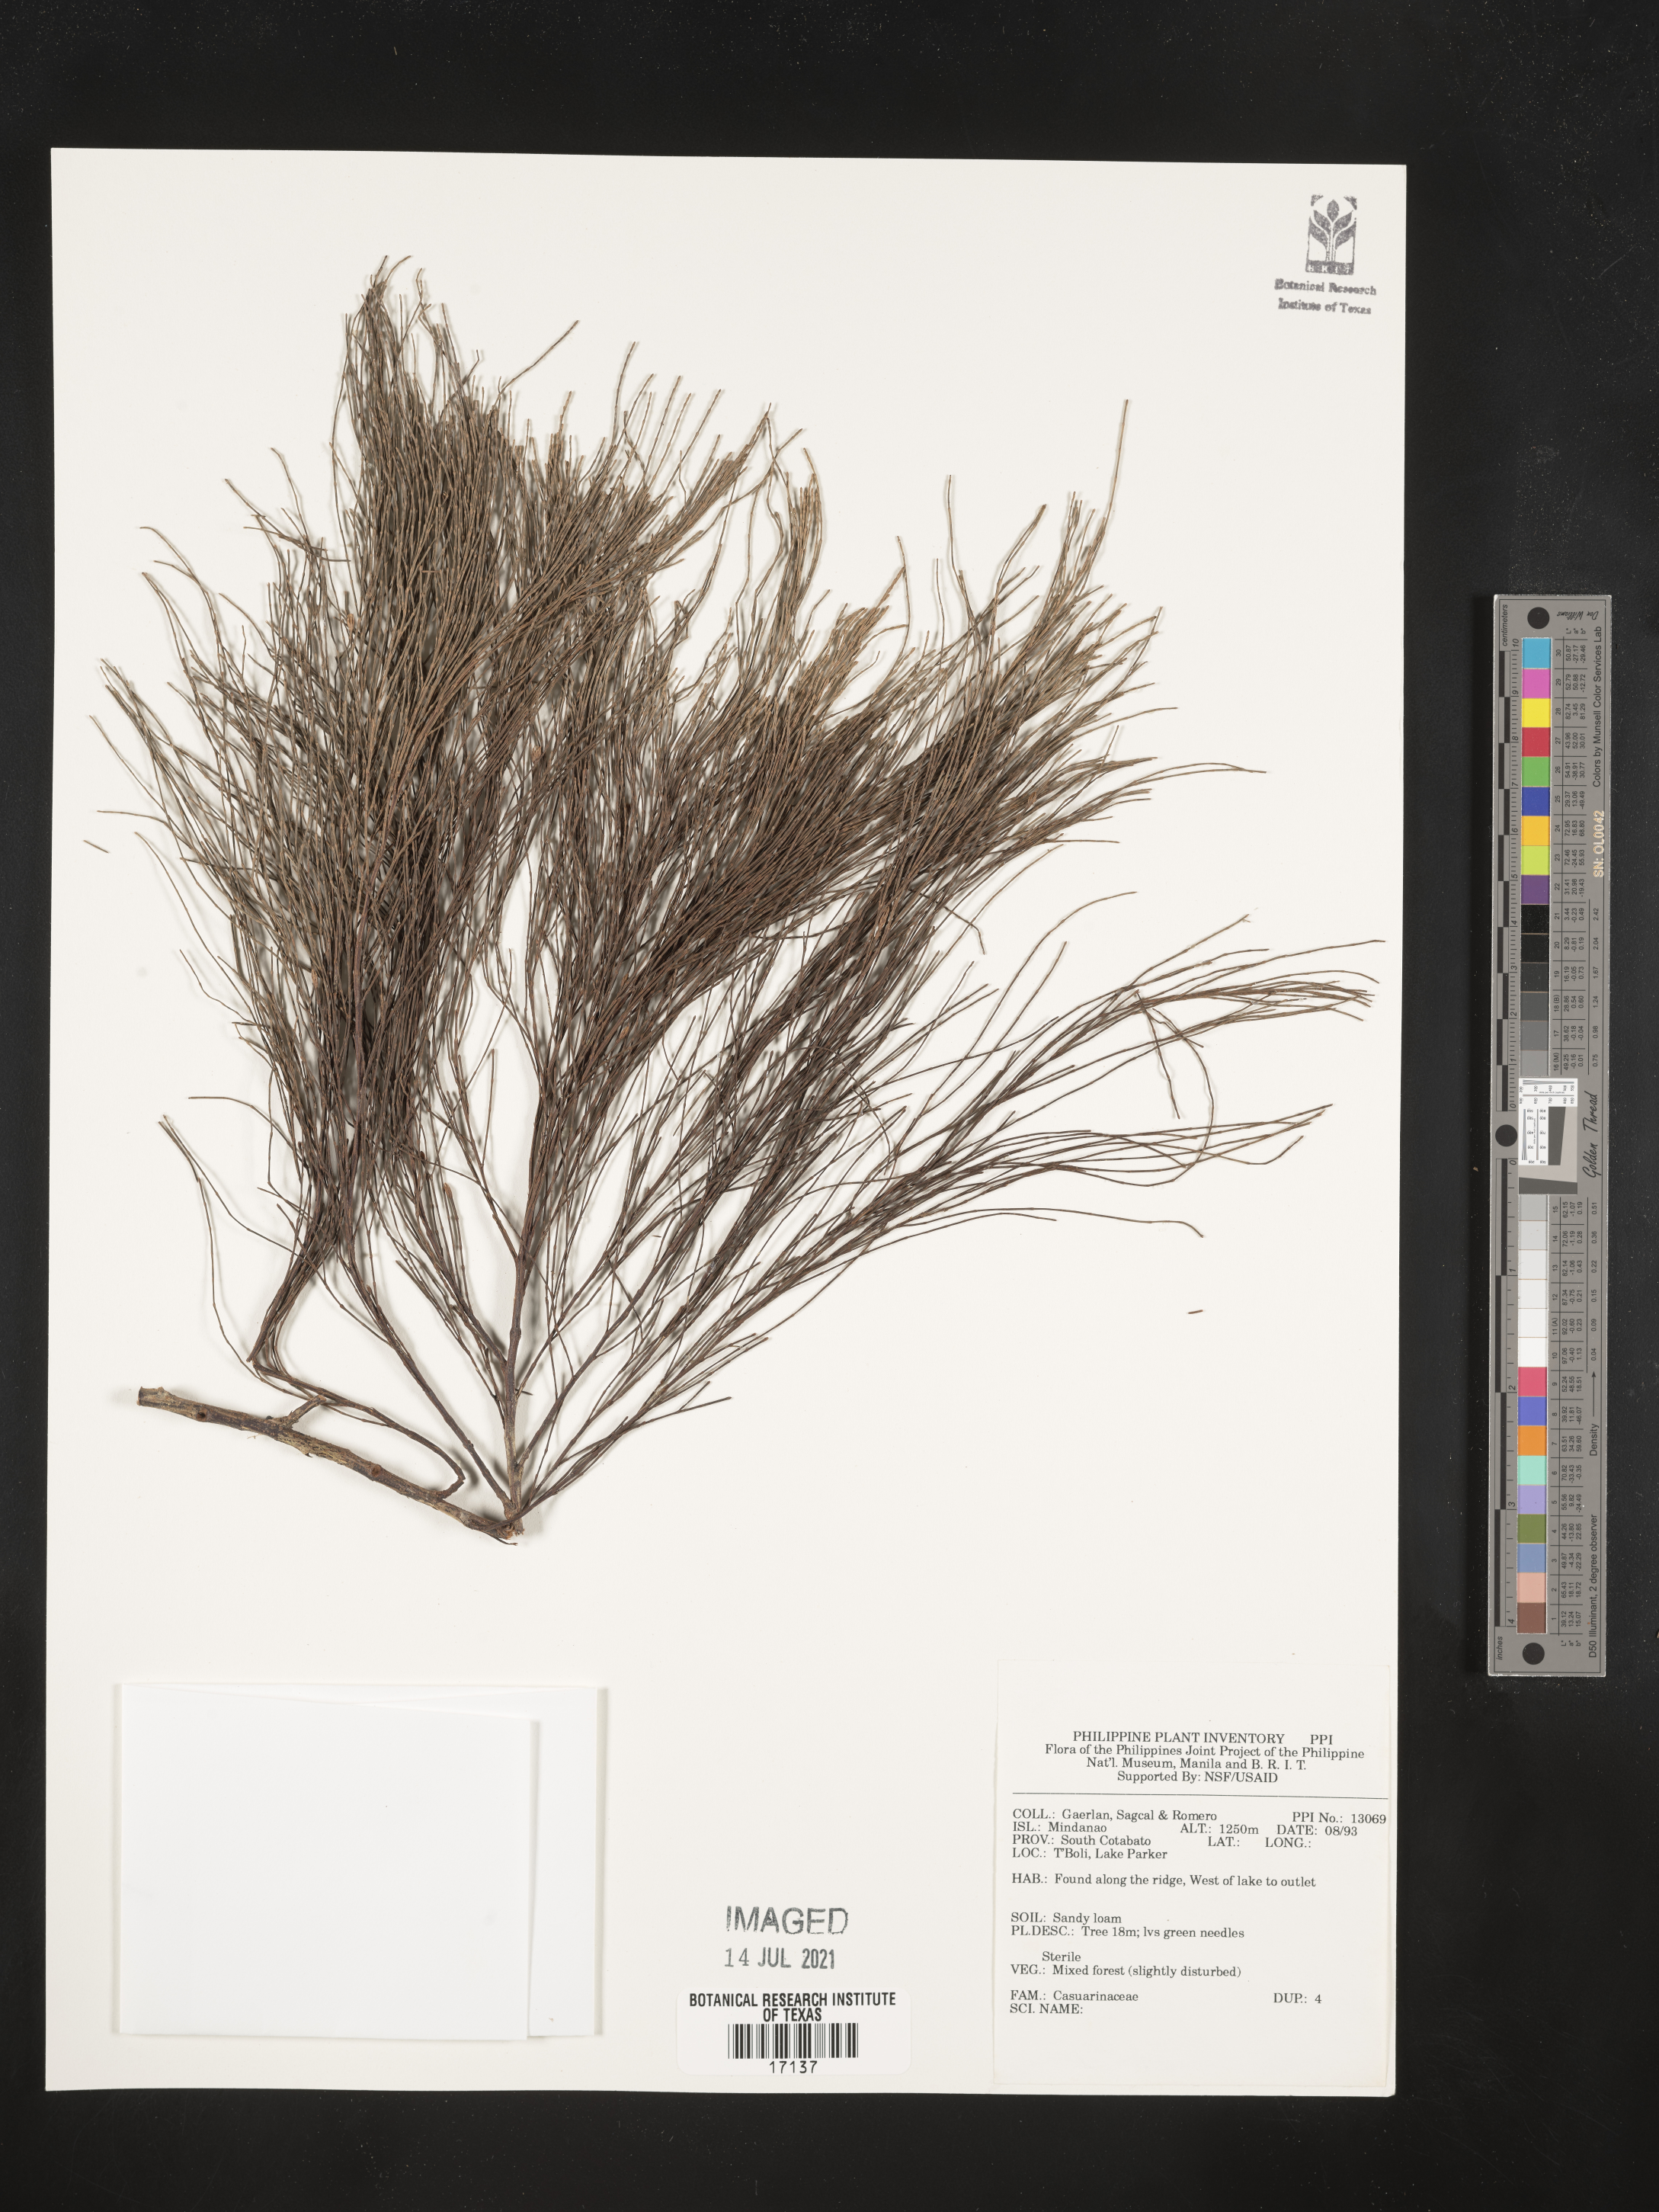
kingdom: Plantae
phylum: Tracheophyta
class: Magnoliopsida
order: Fagales
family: Casuarinaceae
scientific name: Casuarinaceae
